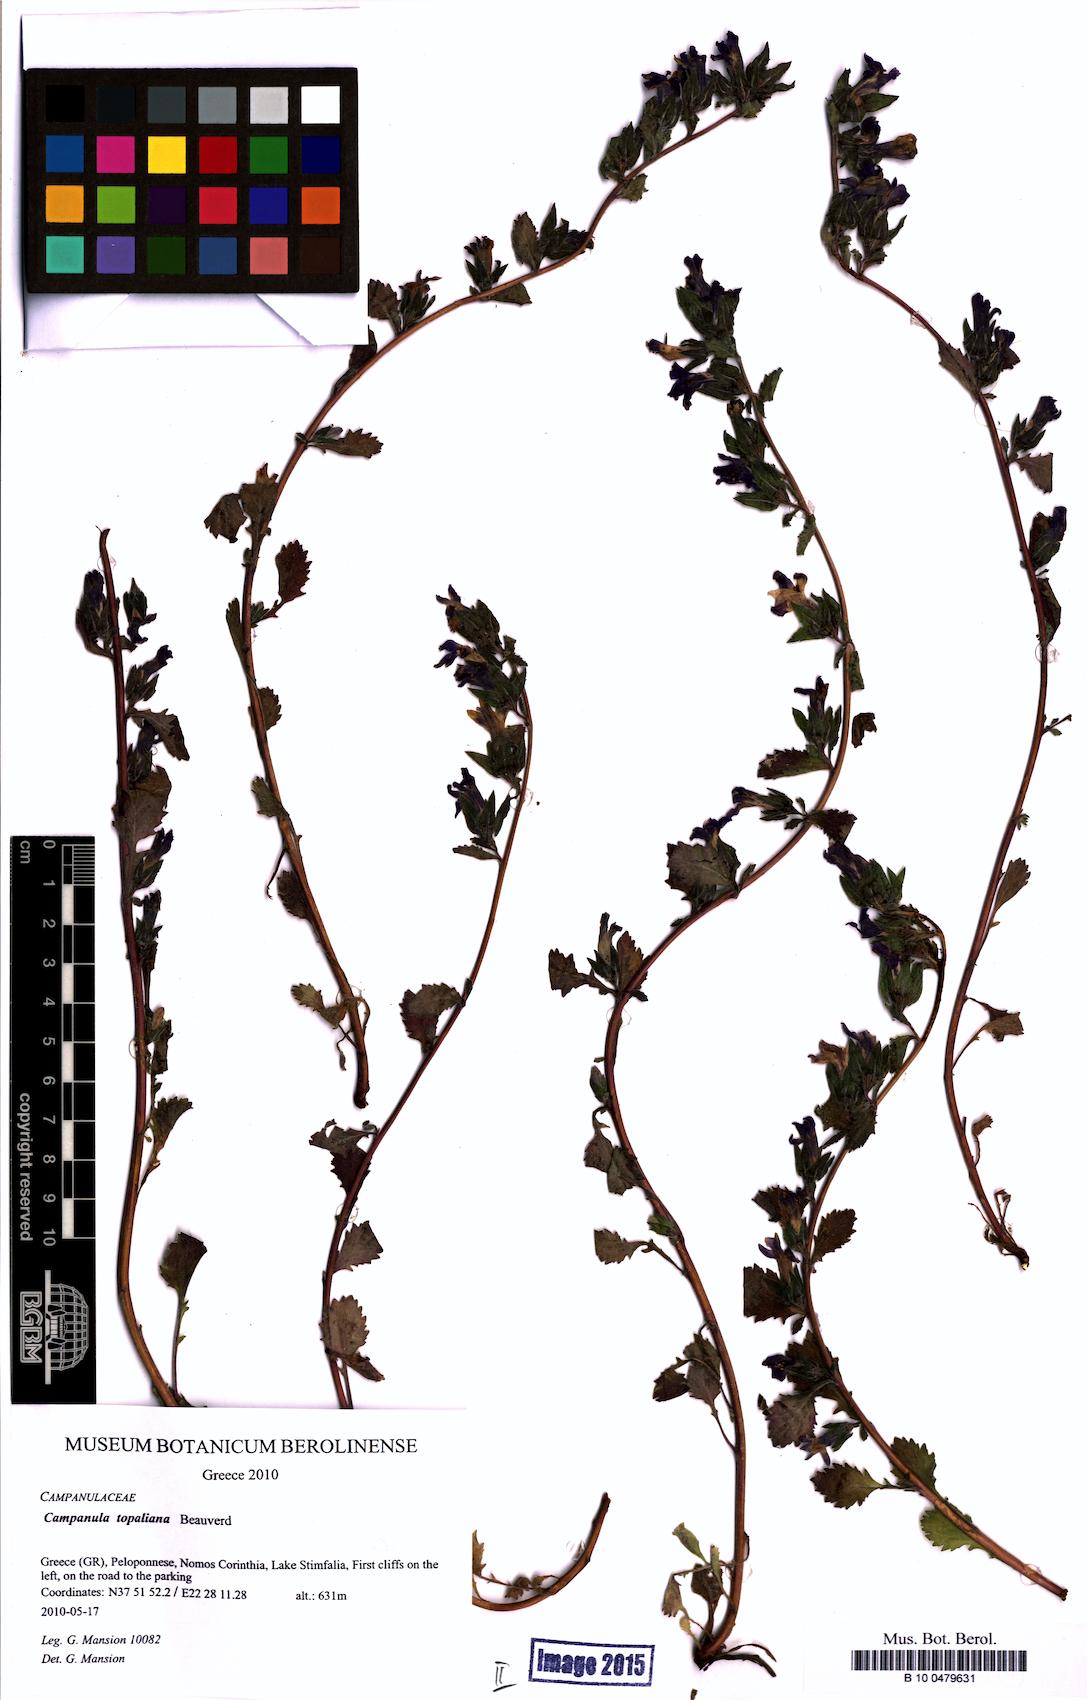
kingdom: Plantae
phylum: Tracheophyta
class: Magnoliopsida
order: Asterales
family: Campanulaceae
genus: Campanula
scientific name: Campanula topaliana
